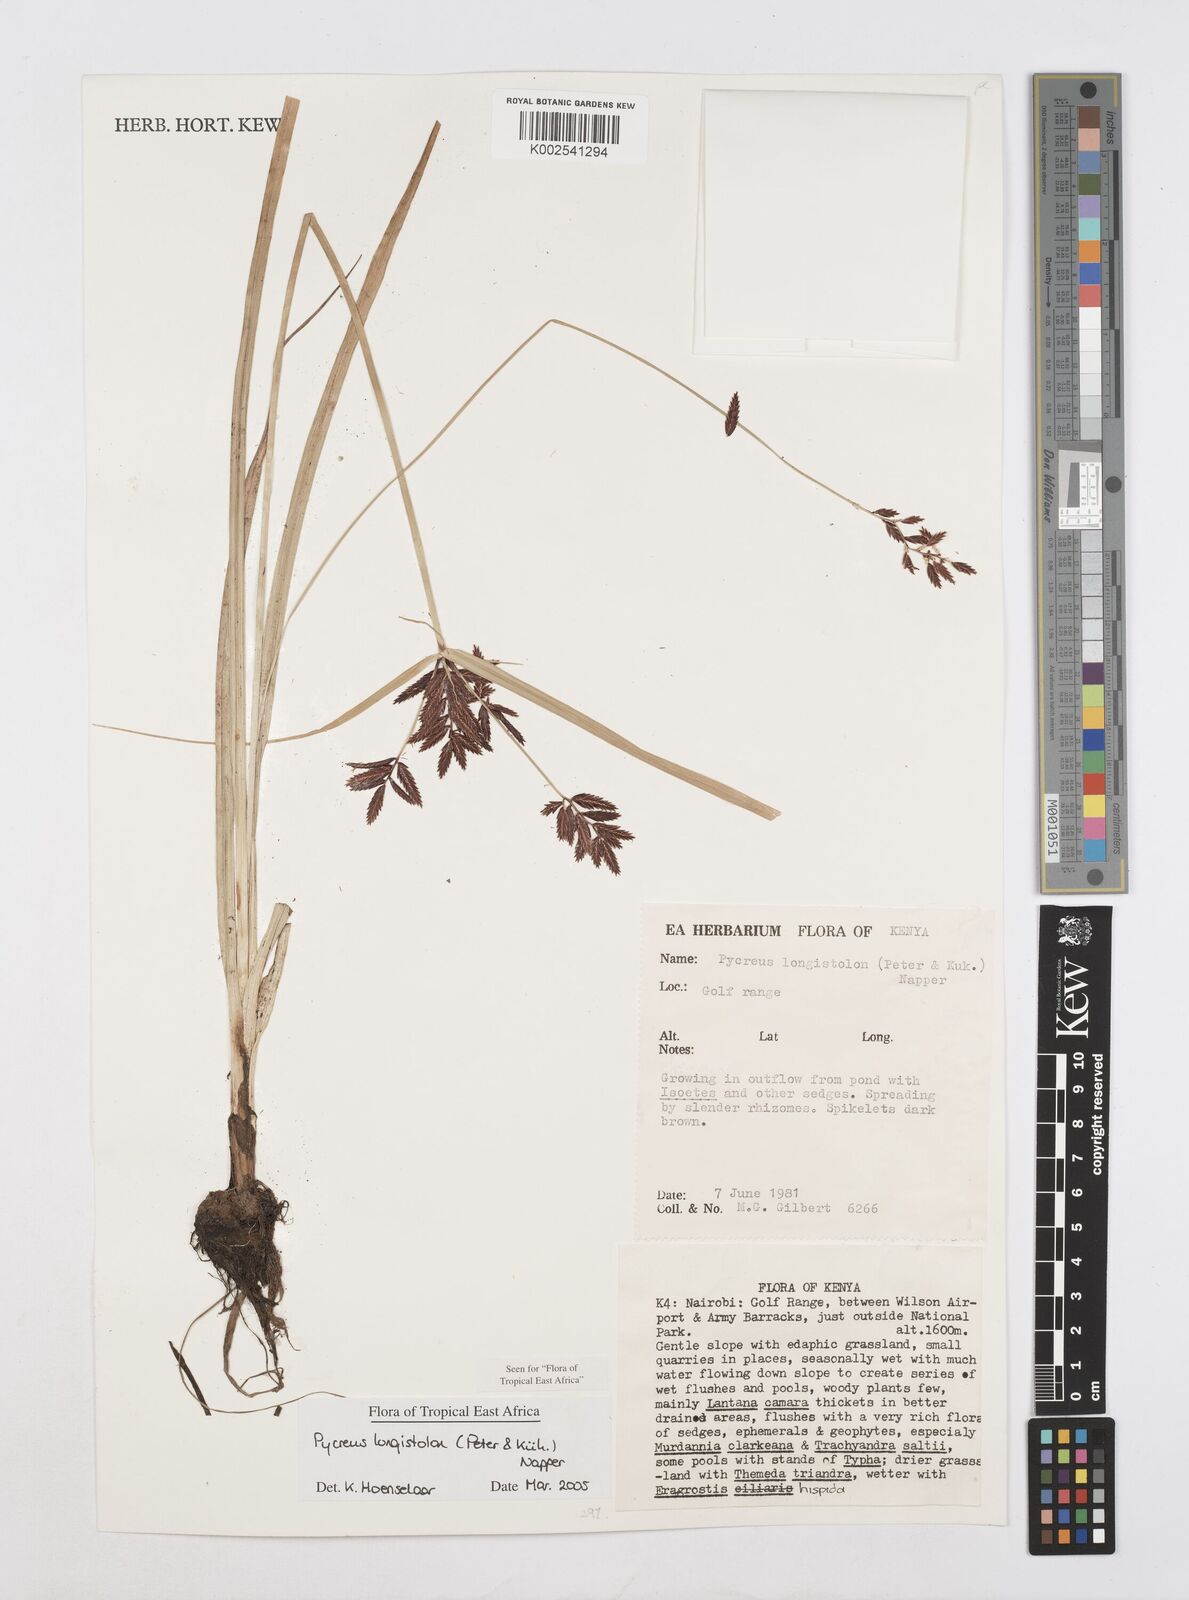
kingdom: Plantae
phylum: Tracheophyta
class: Liliopsida
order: Poales
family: Cyperaceae
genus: Cyperus
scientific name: Cyperus chrysanthus
